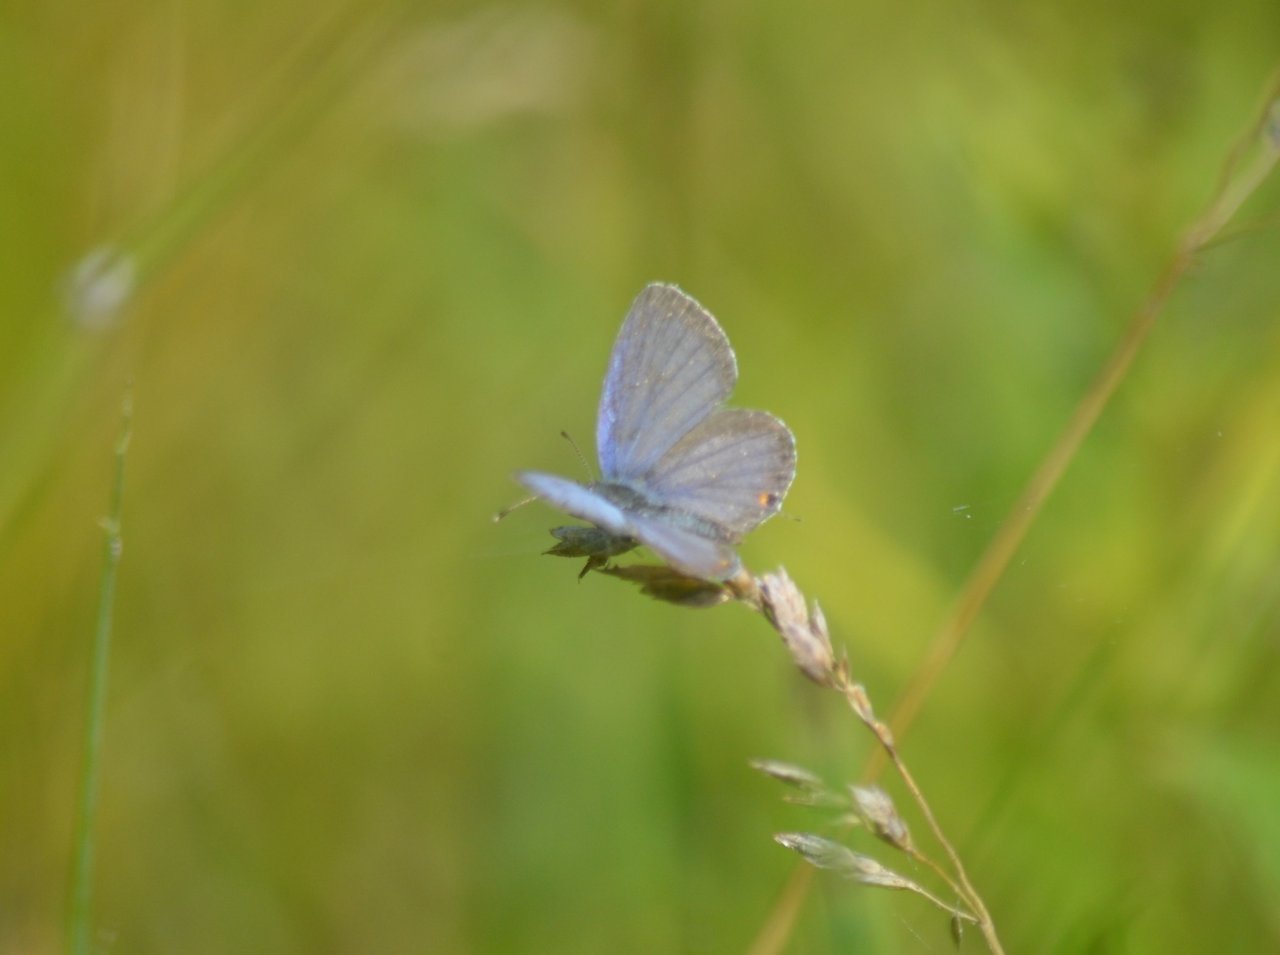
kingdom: Animalia
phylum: Arthropoda
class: Insecta
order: Lepidoptera
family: Lycaenidae
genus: Elkalyce
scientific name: Elkalyce comyntas
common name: Eastern Tailed-Blue
